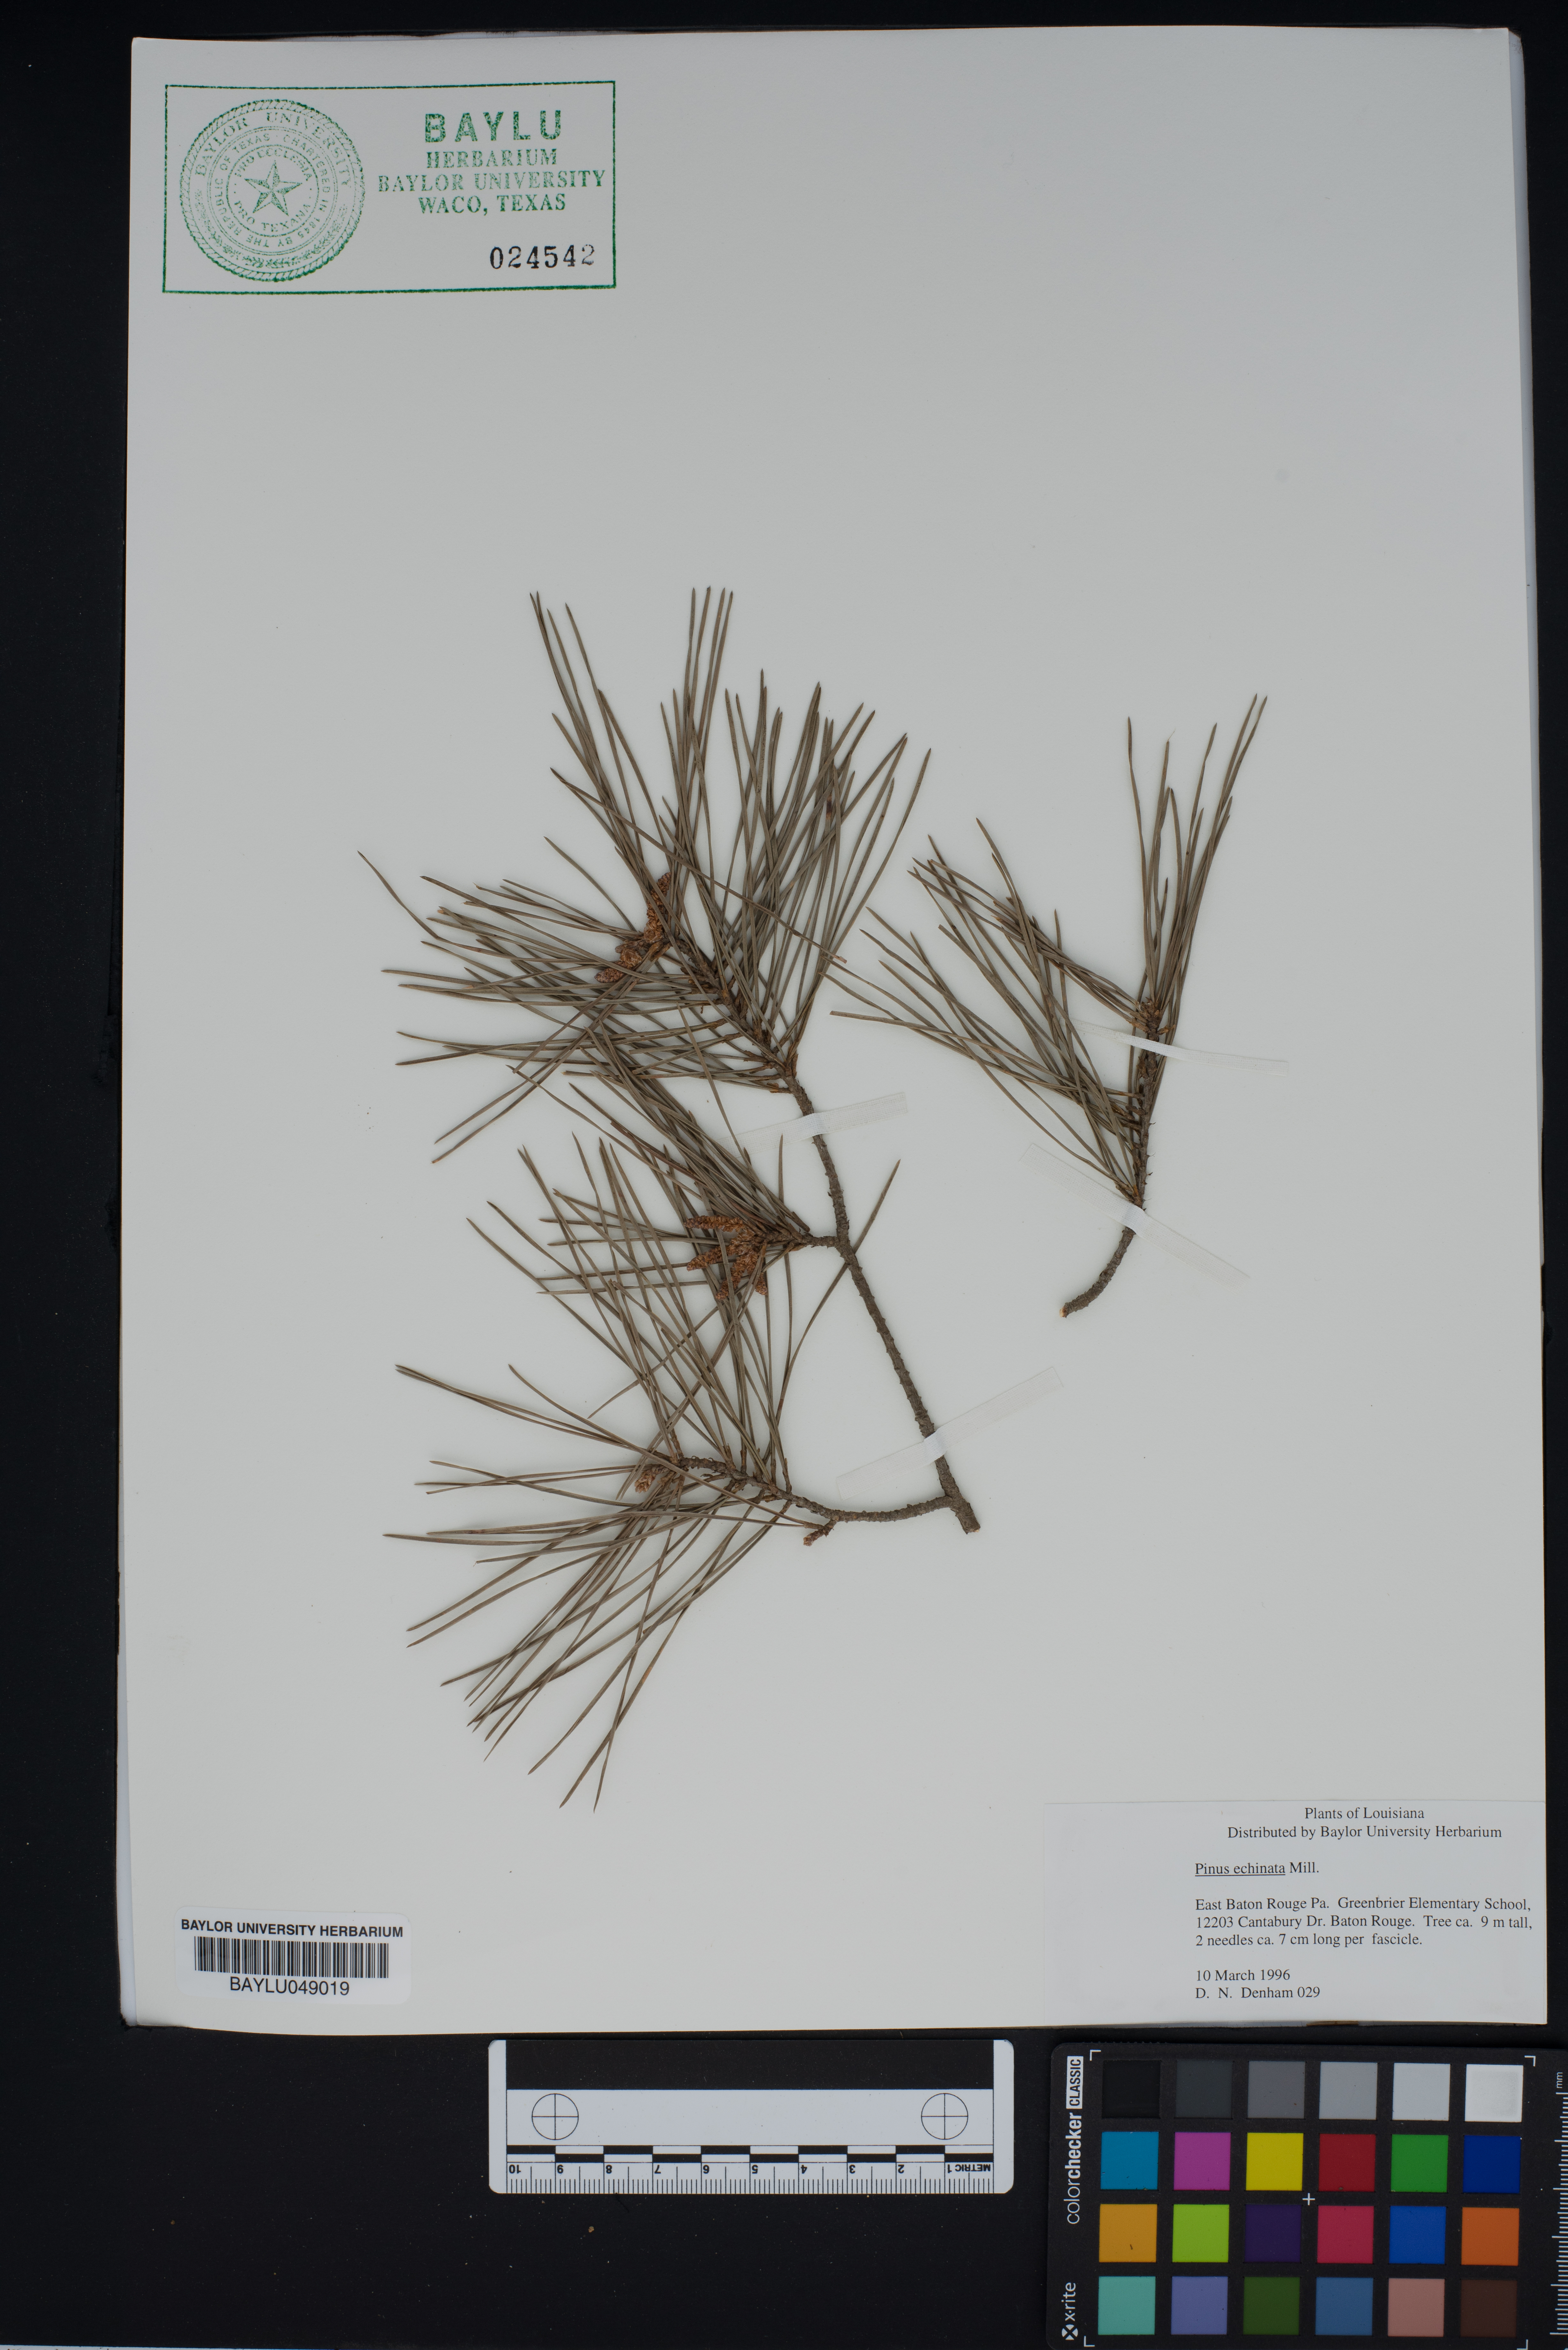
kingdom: Plantae
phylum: Tracheophyta
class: Pinopsida
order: Pinales
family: Pinaceae
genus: Pinus
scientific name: Pinus echinata
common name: Shortleaf pine
